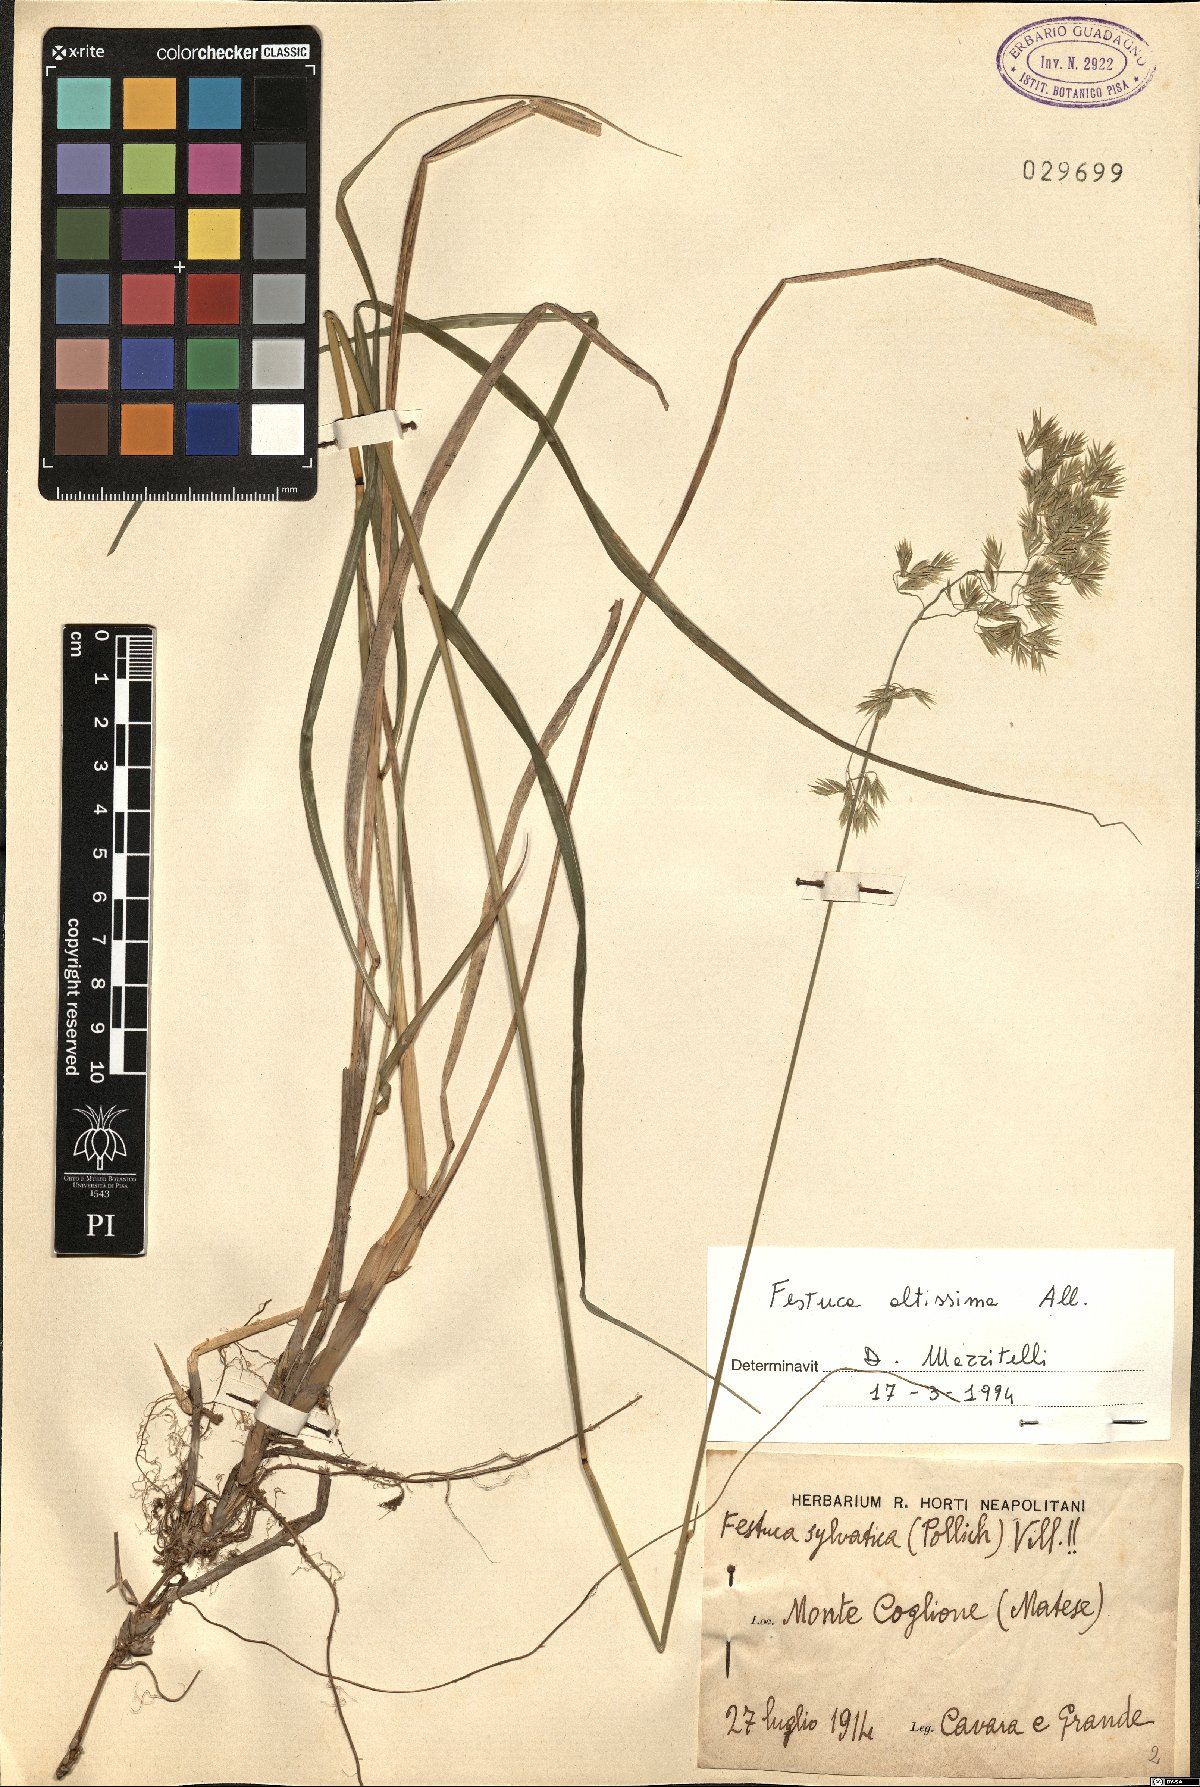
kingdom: Plantae
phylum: Tracheophyta
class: Liliopsida
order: Poales
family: Poaceae
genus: Festuca
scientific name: Festuca altissima
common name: Wood fescue
